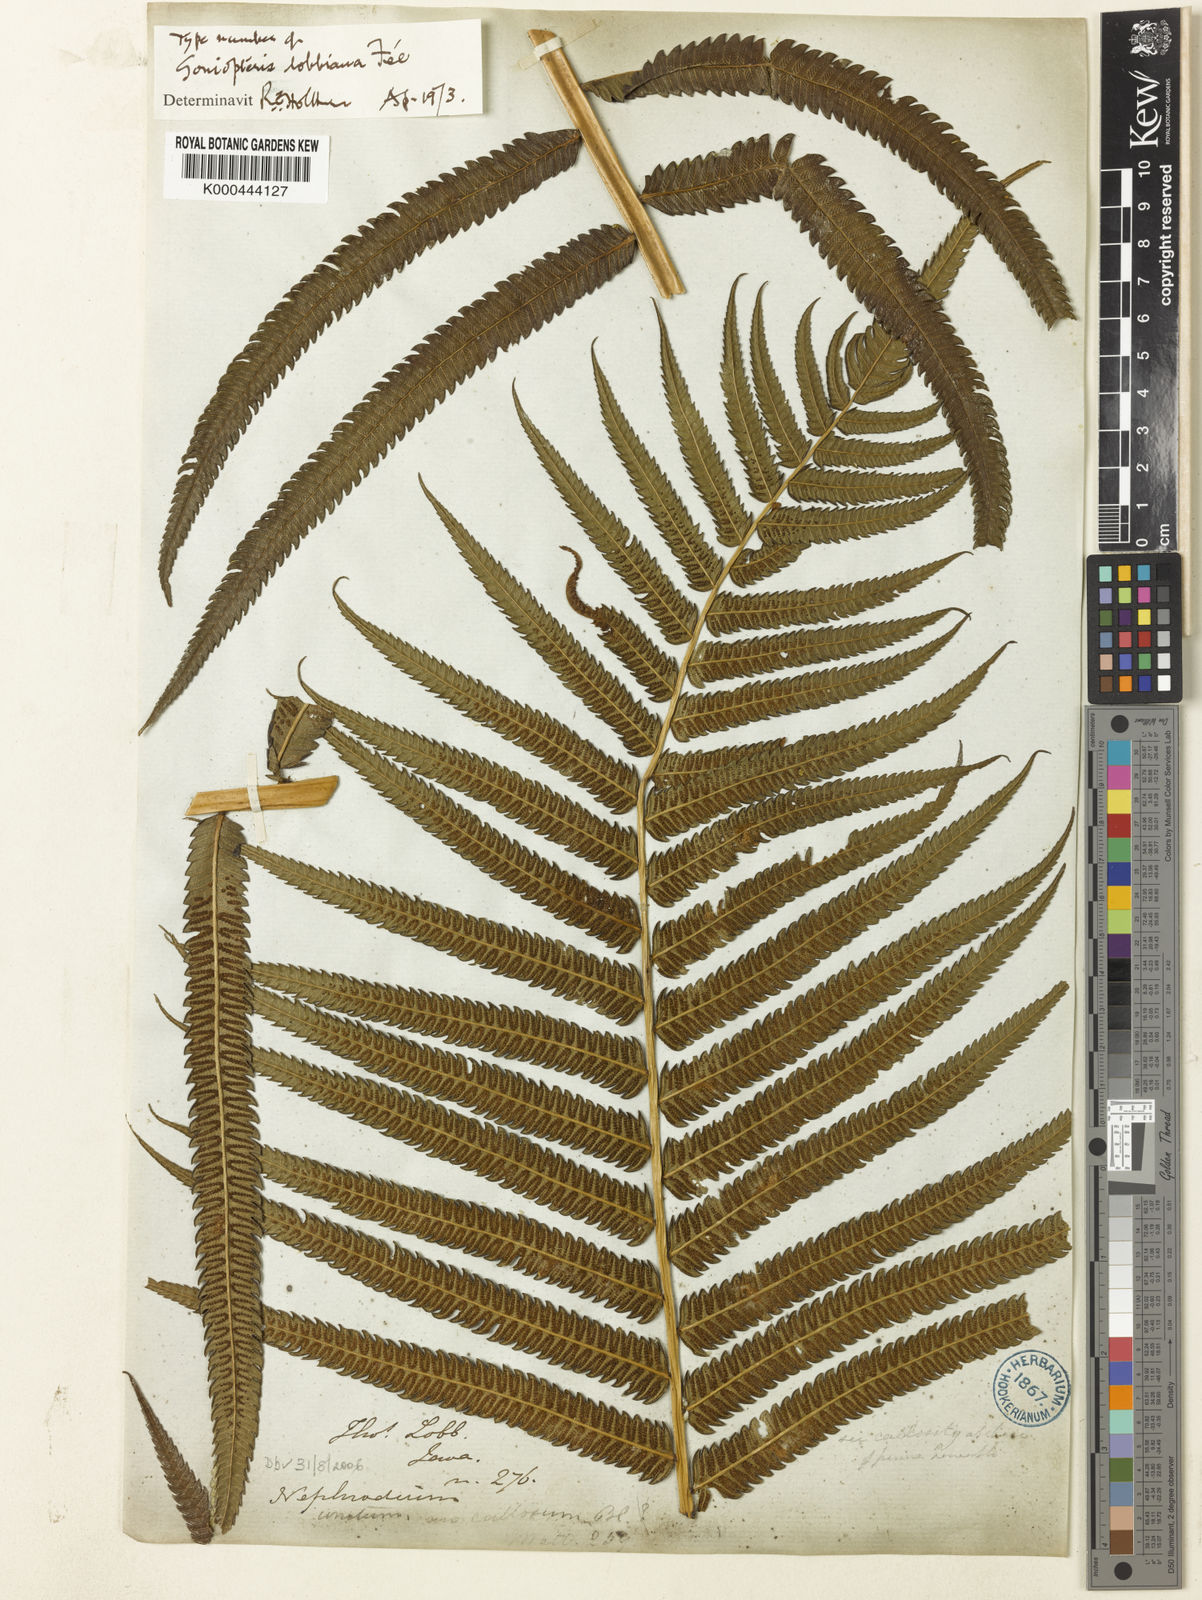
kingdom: Plantae
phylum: Tracheophyta
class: Polypodiopsida
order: Polypodiales
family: Thelypteridaceae
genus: Pneumatopteris
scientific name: Pneumatopteris callosa
